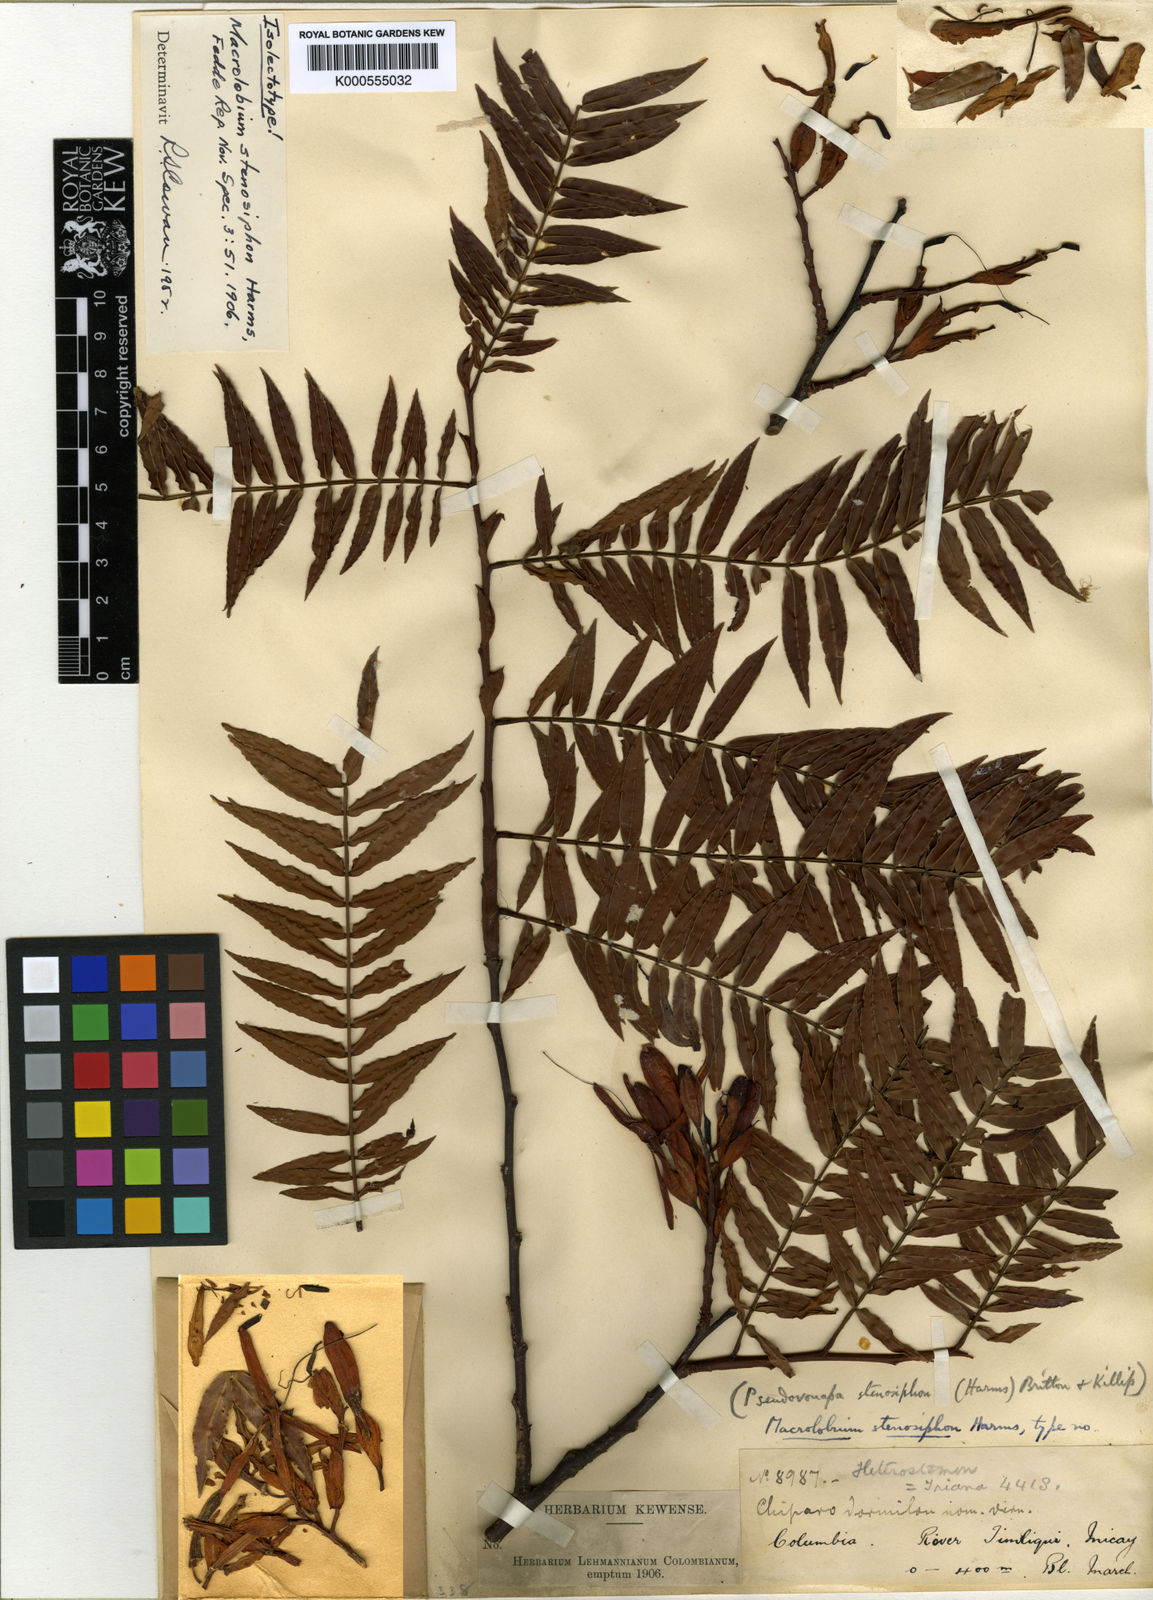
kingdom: Plantae
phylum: Tracheophyta
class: Magnoliopsida
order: Fabales
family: Fabaceae
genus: Macrolobium
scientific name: Macrolobium stenosiphon
